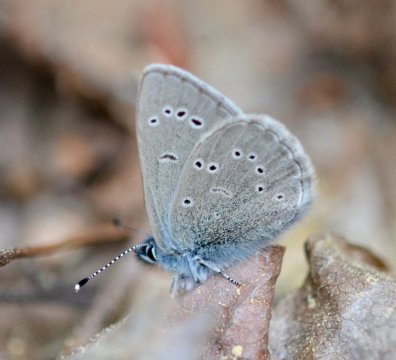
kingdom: Animalia
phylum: Arthropoda
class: Insecta
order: Lepidoptera
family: Lycaenidae
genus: Glaucopsyche
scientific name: Glaucopsyche lygdamus
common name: Silvery Blue
